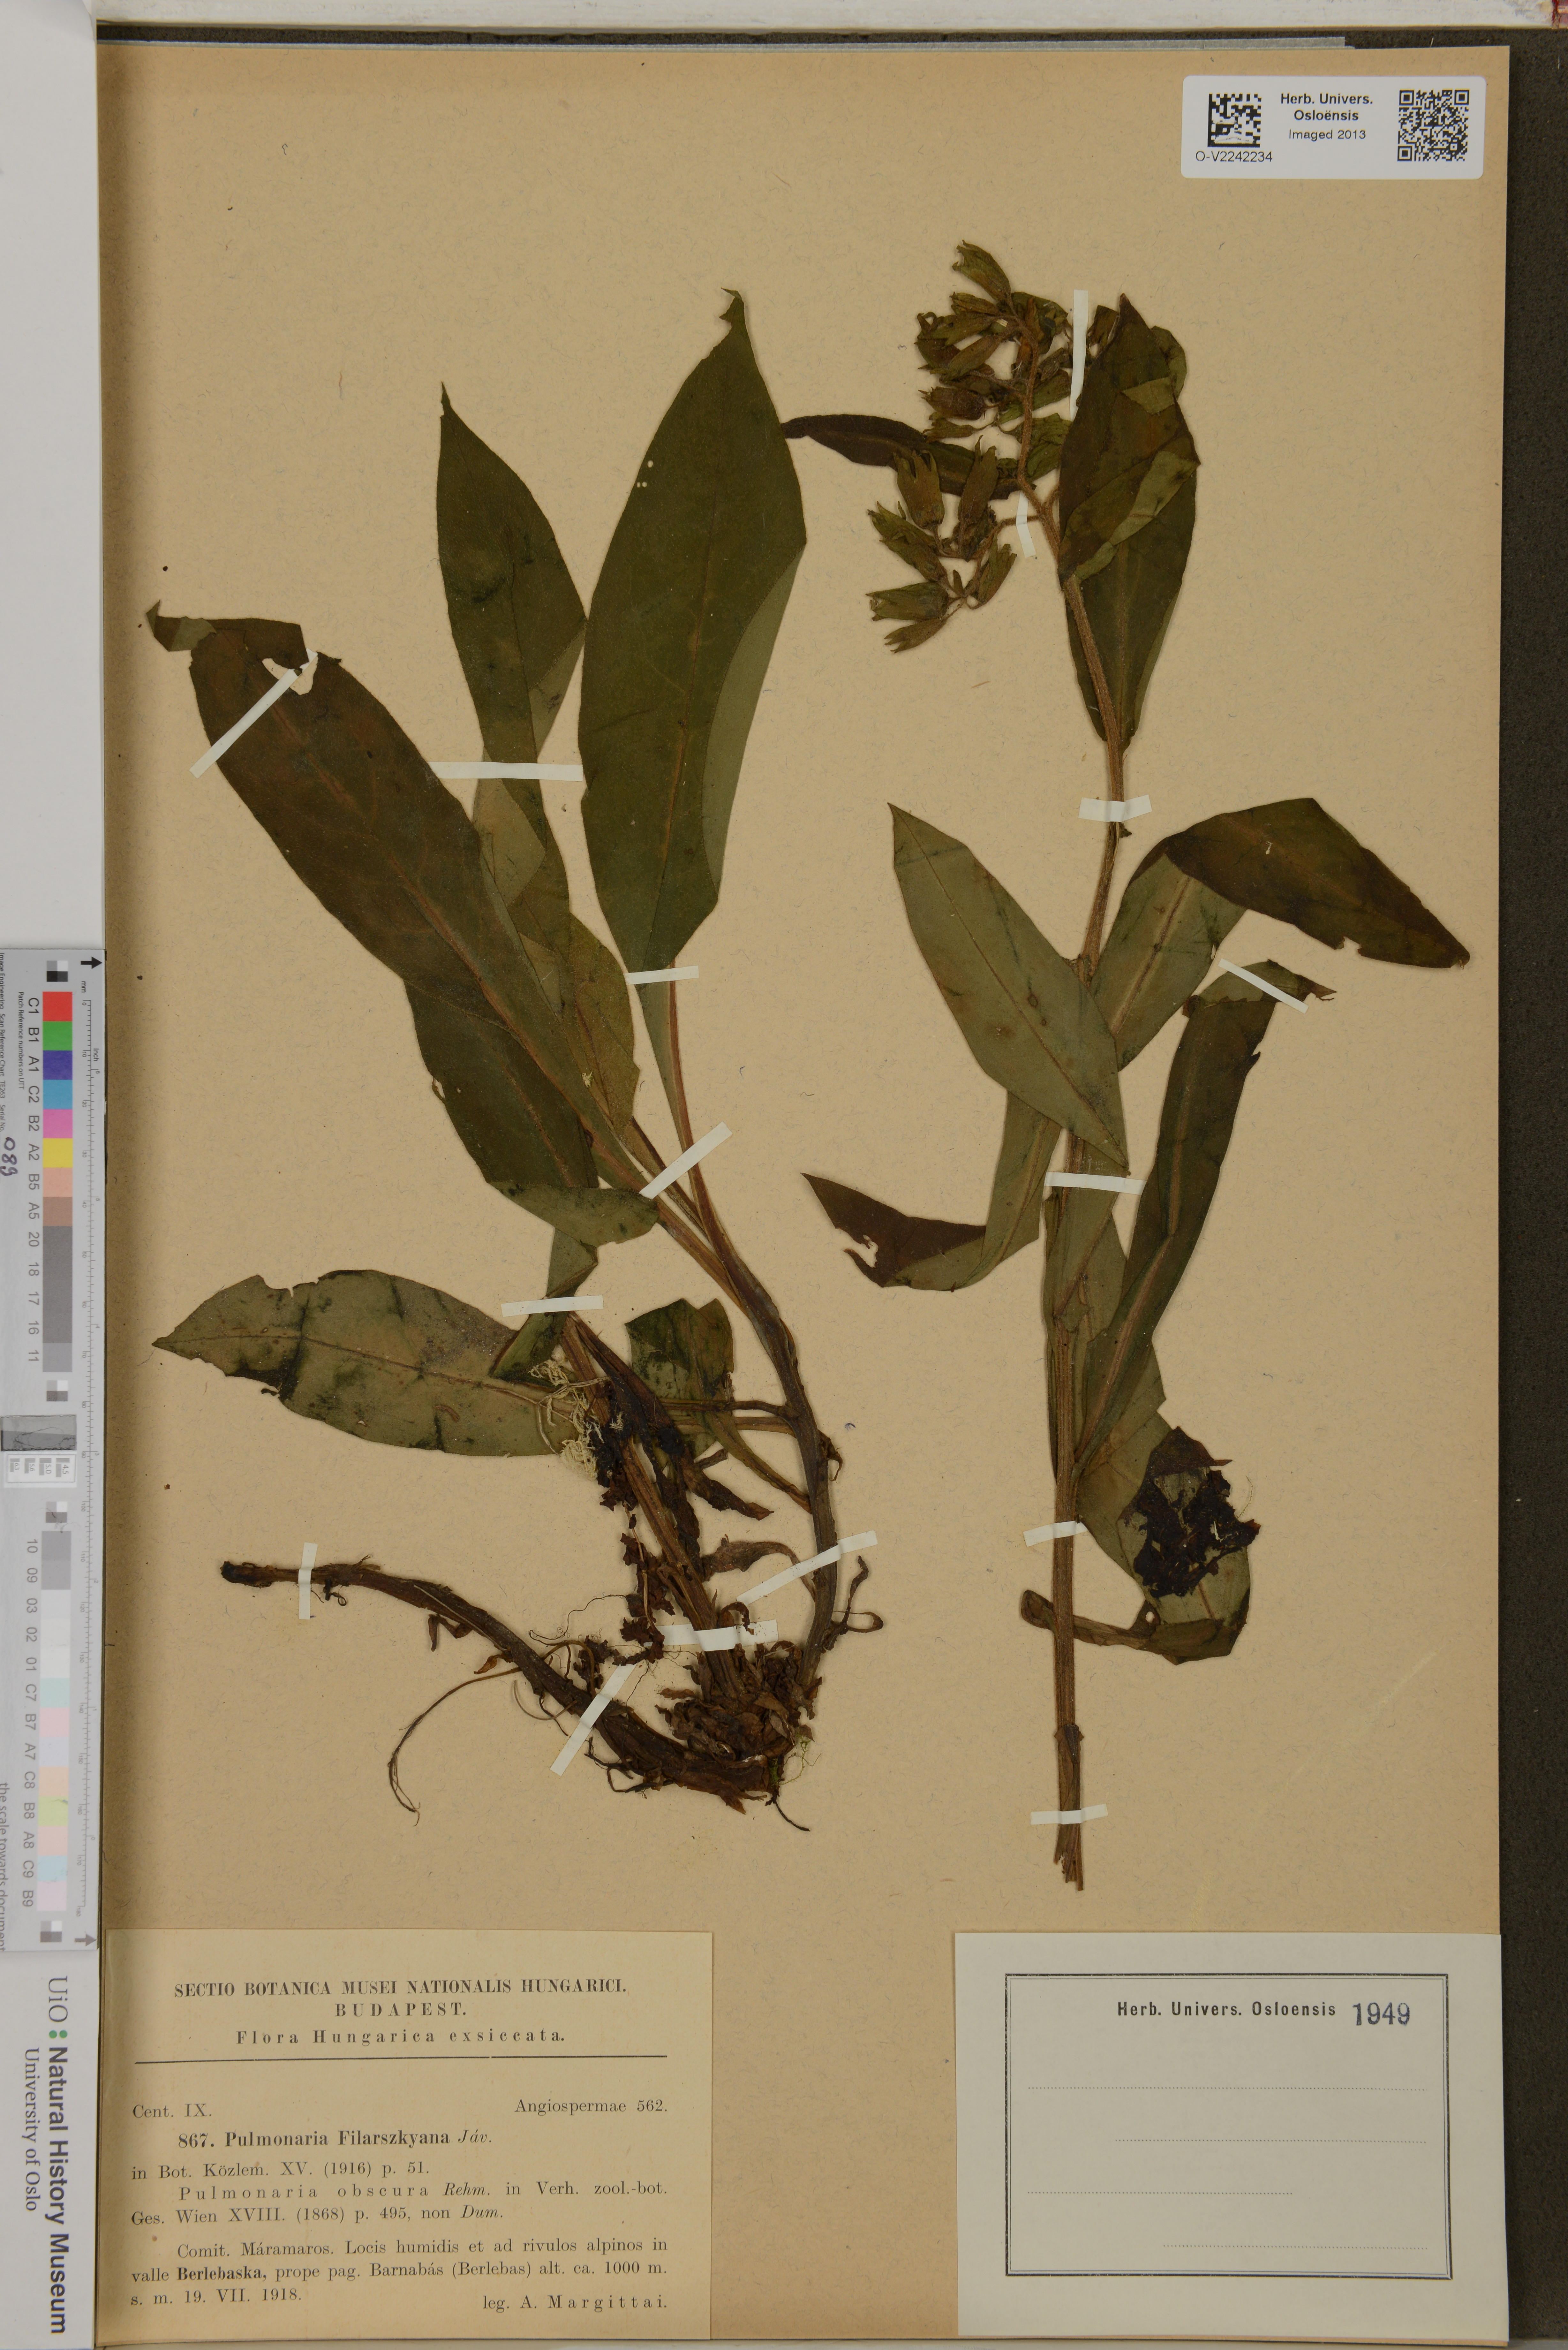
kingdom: Plantae
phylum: Tracheophyta
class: Magnoliopsida
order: Boraginales
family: Boraginaceae
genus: Pulmonaria
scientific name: Pulmonaria filarszkyana
